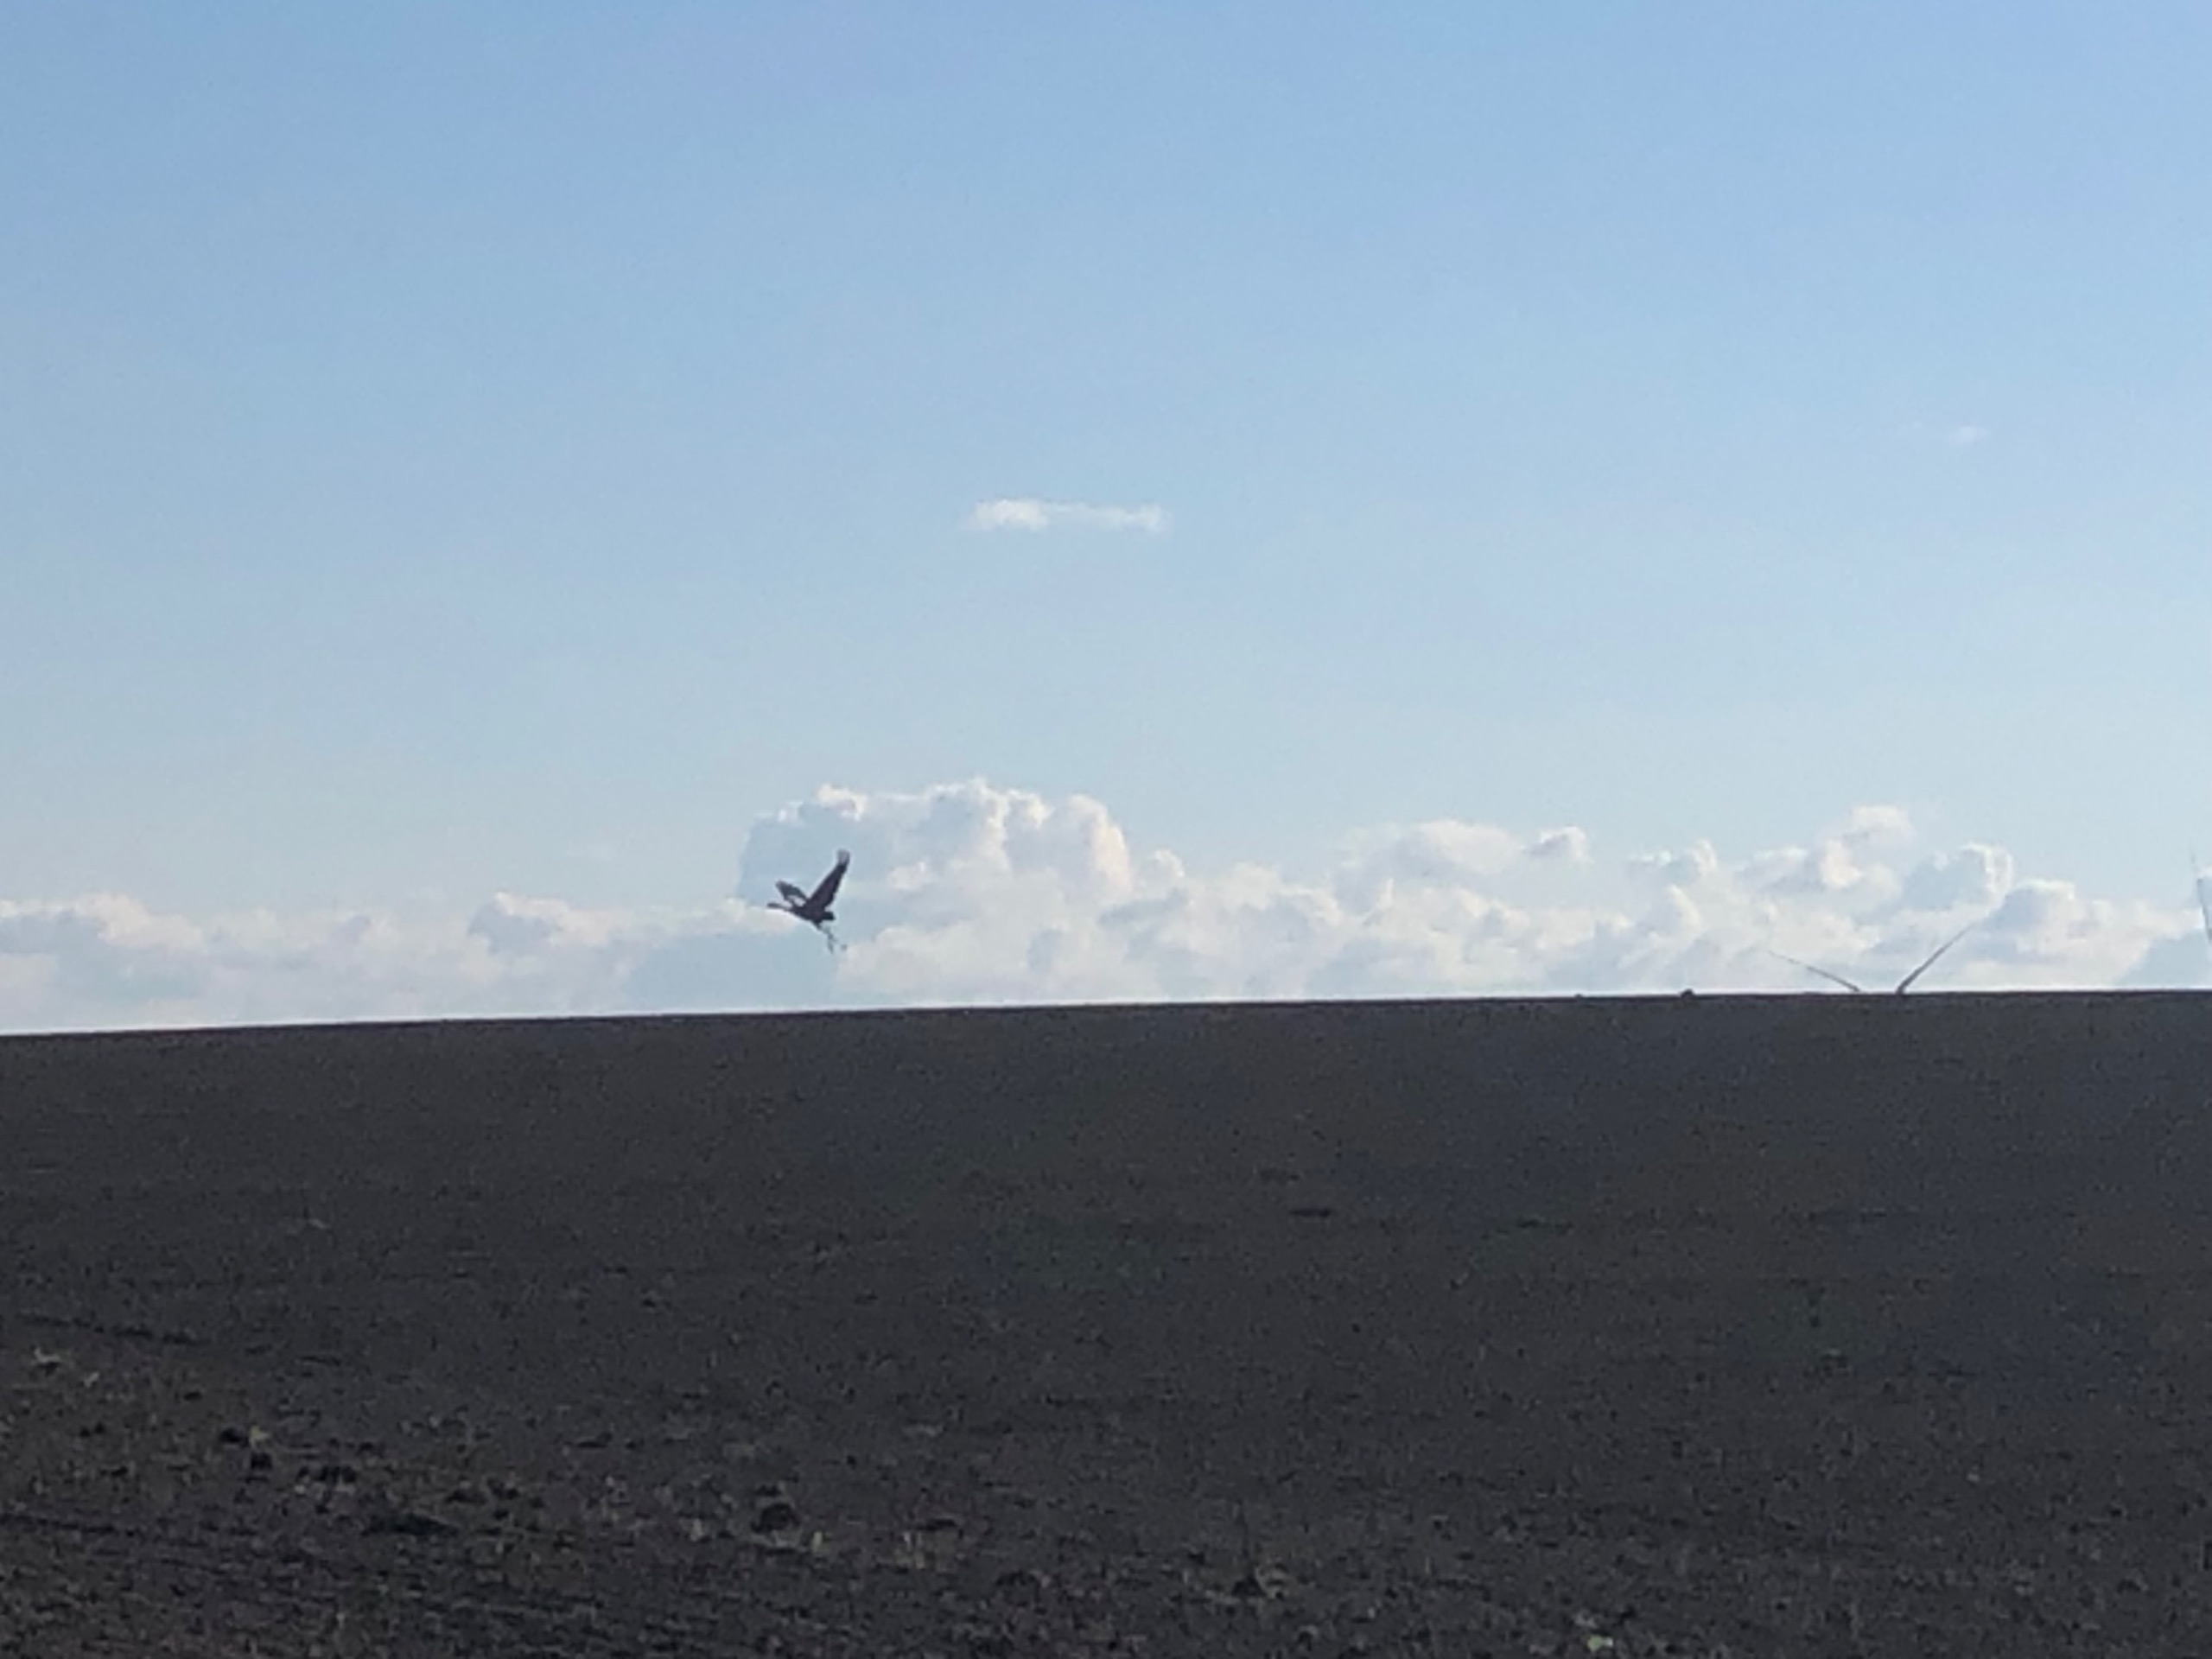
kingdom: Animalia
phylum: Chordata
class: Aves
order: Gruiformes
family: Gruidae
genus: Grus
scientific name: Grus grus
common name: Trane
